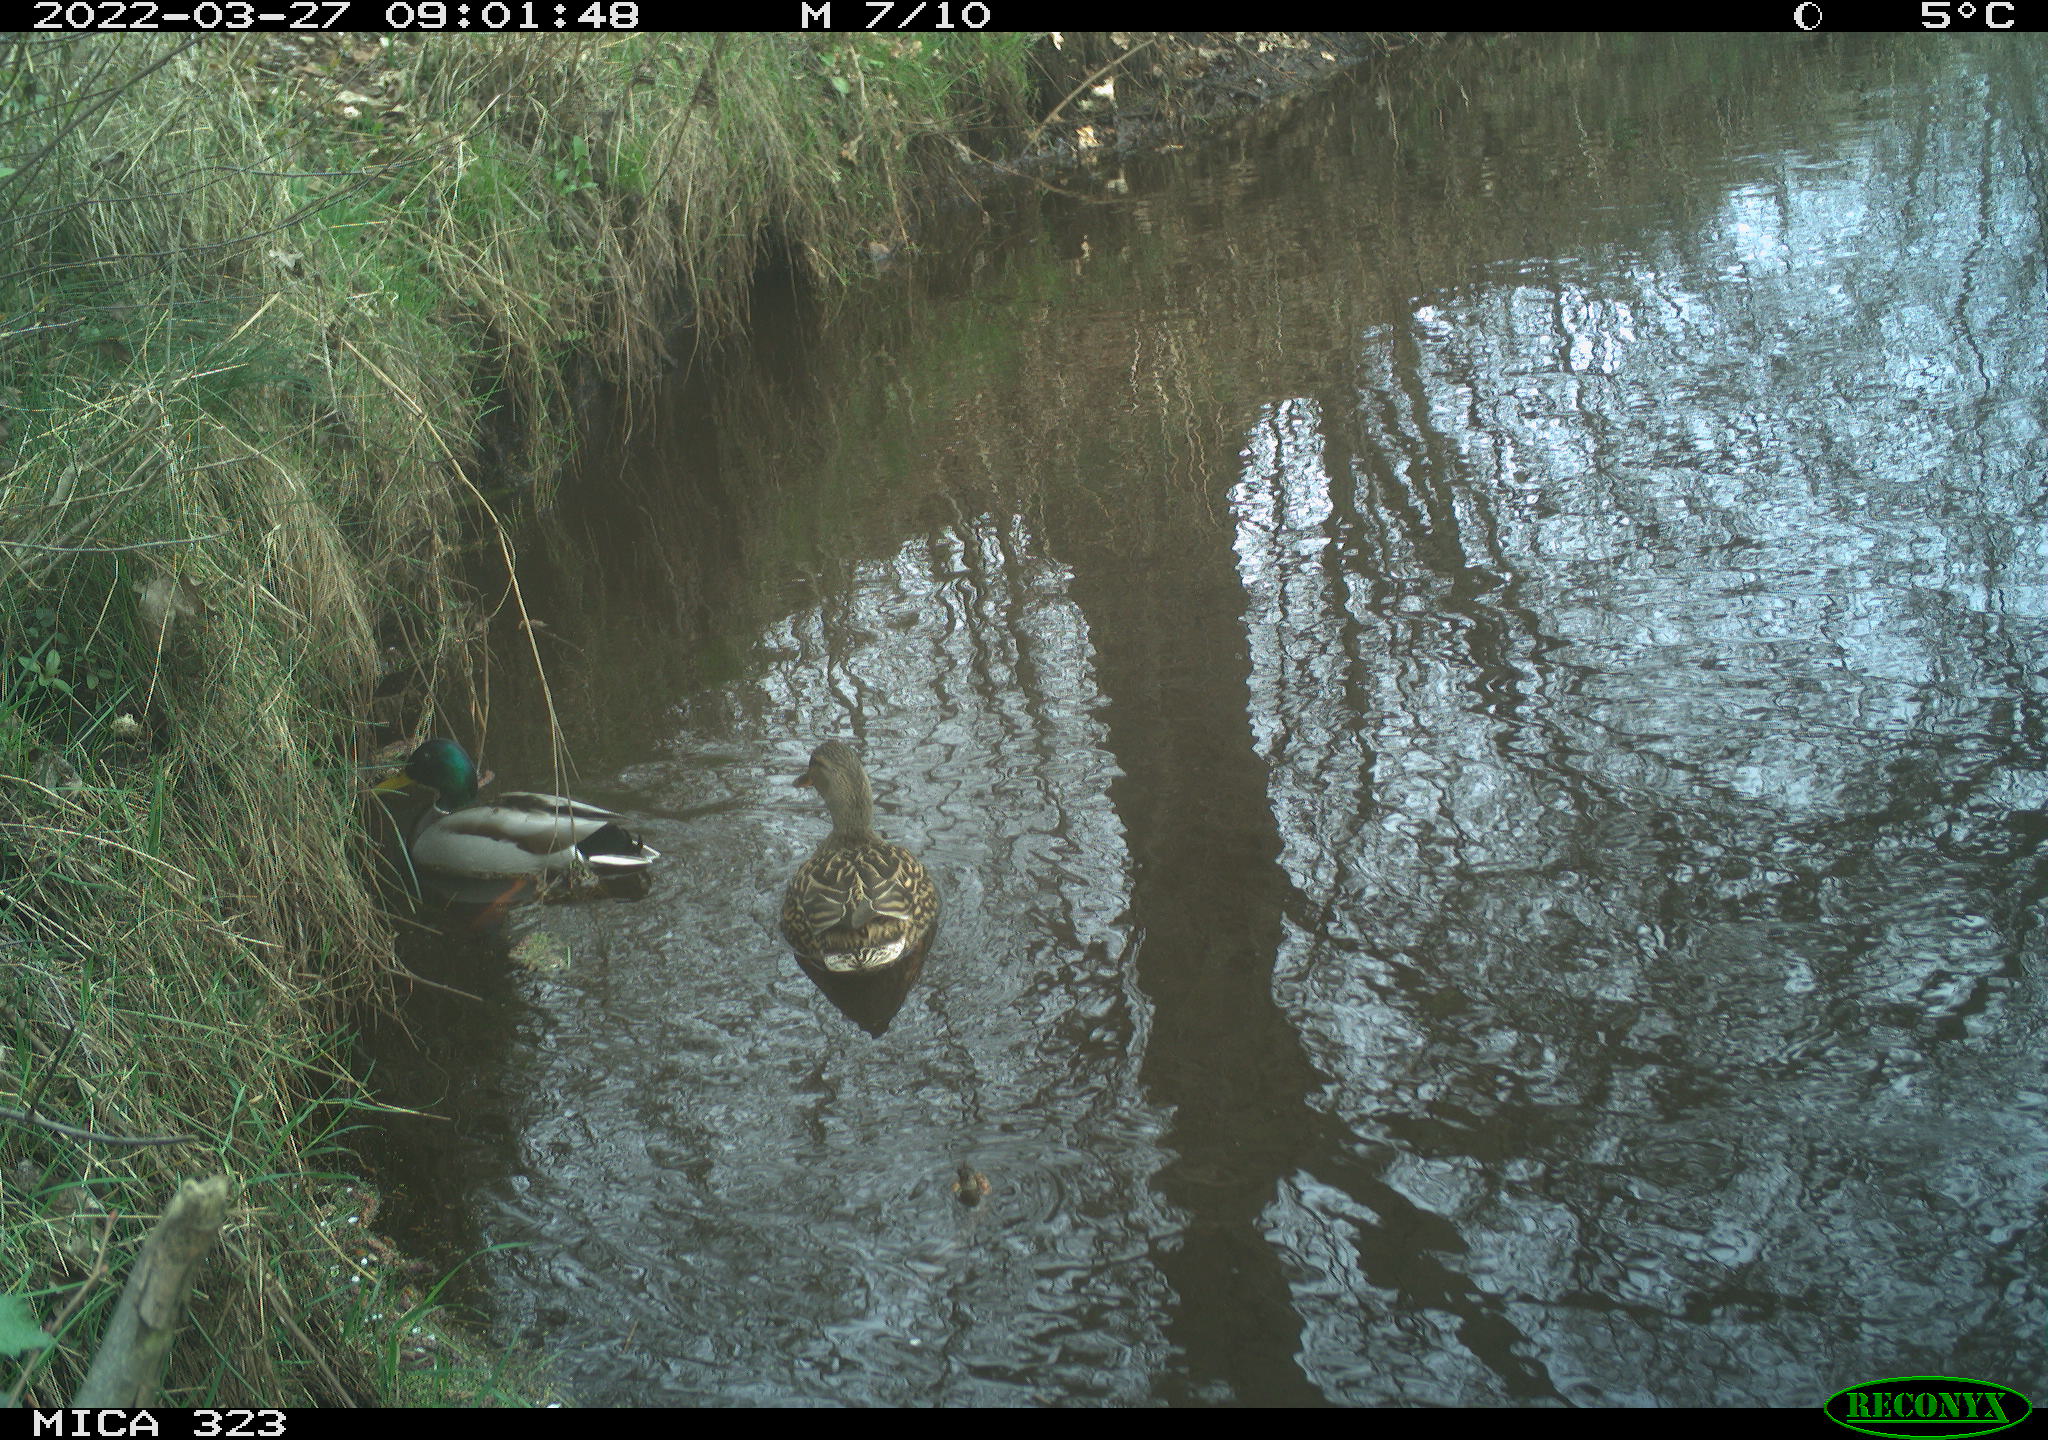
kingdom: Animalia
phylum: Chordata
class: Aves
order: Anseriformes
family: Anatidae
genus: Anas
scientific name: Anas platyrhynchos
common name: Mallard
